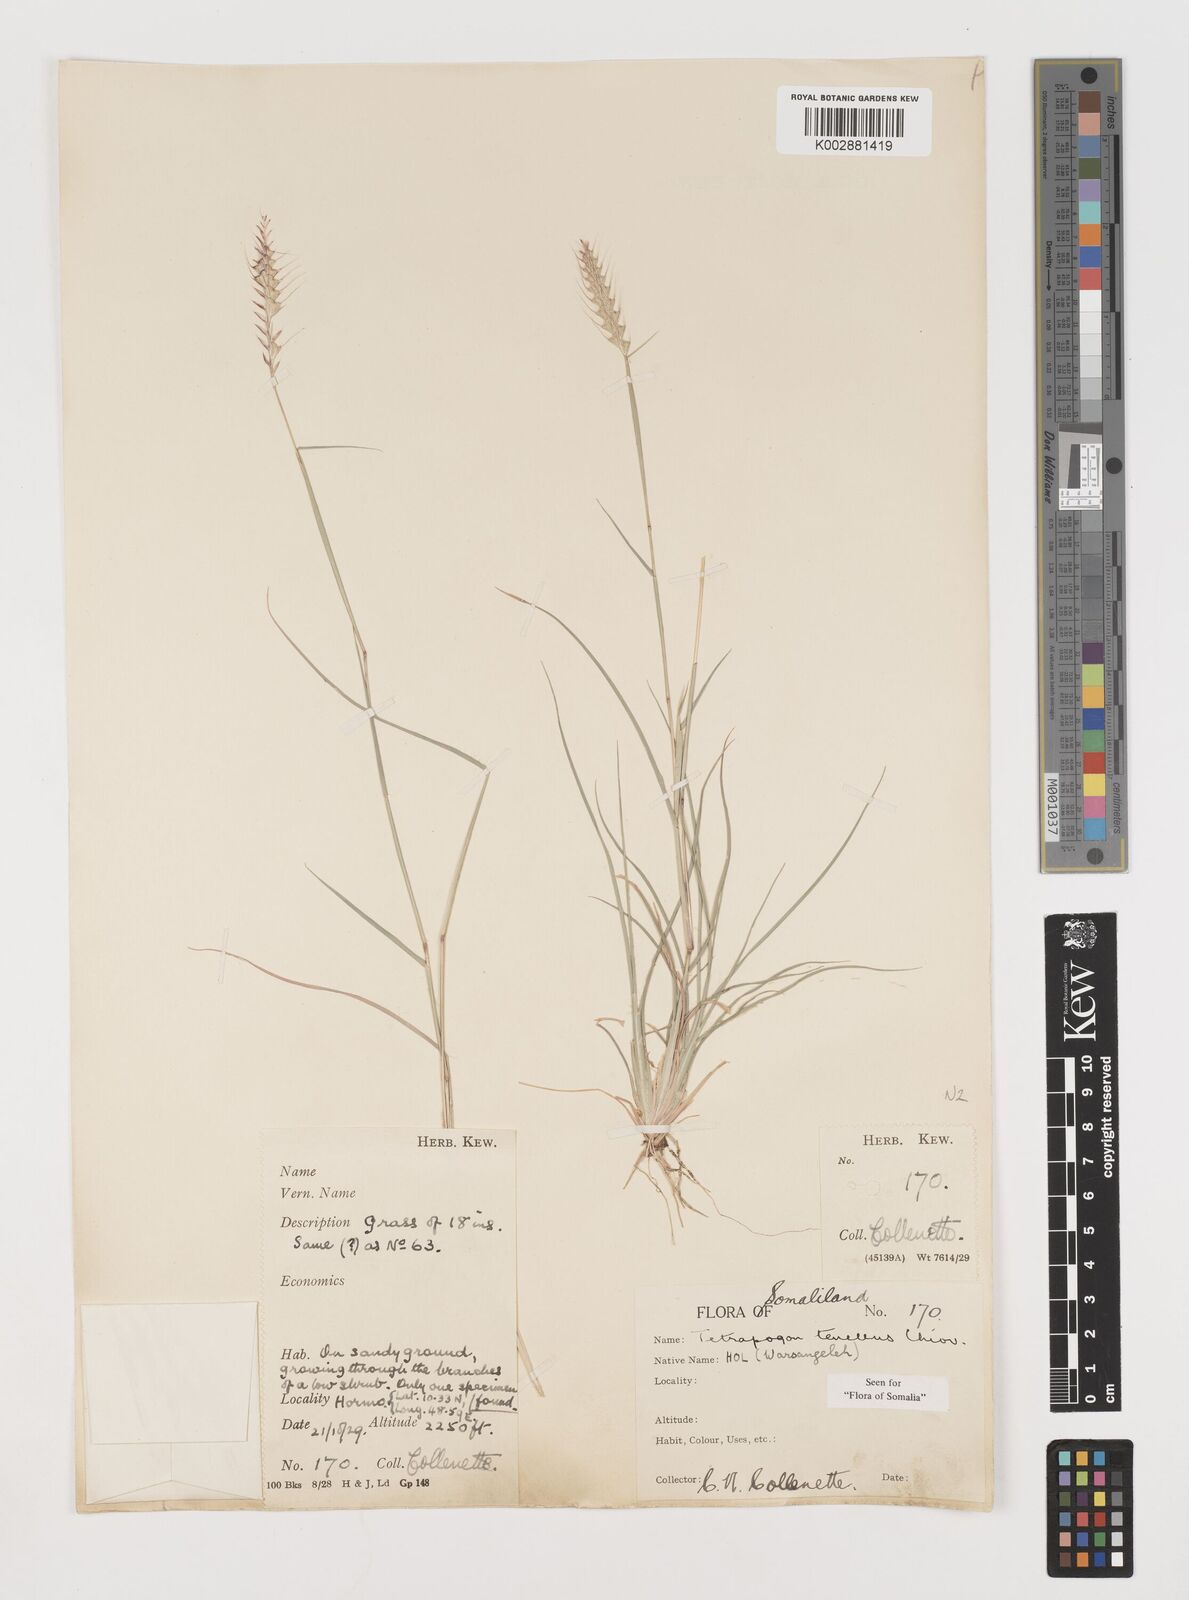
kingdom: Plantae
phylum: Tracheophyta
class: Liliopsida
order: Poales
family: Poaceae
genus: Tetrapogon
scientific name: Tetrapogon tenellus
